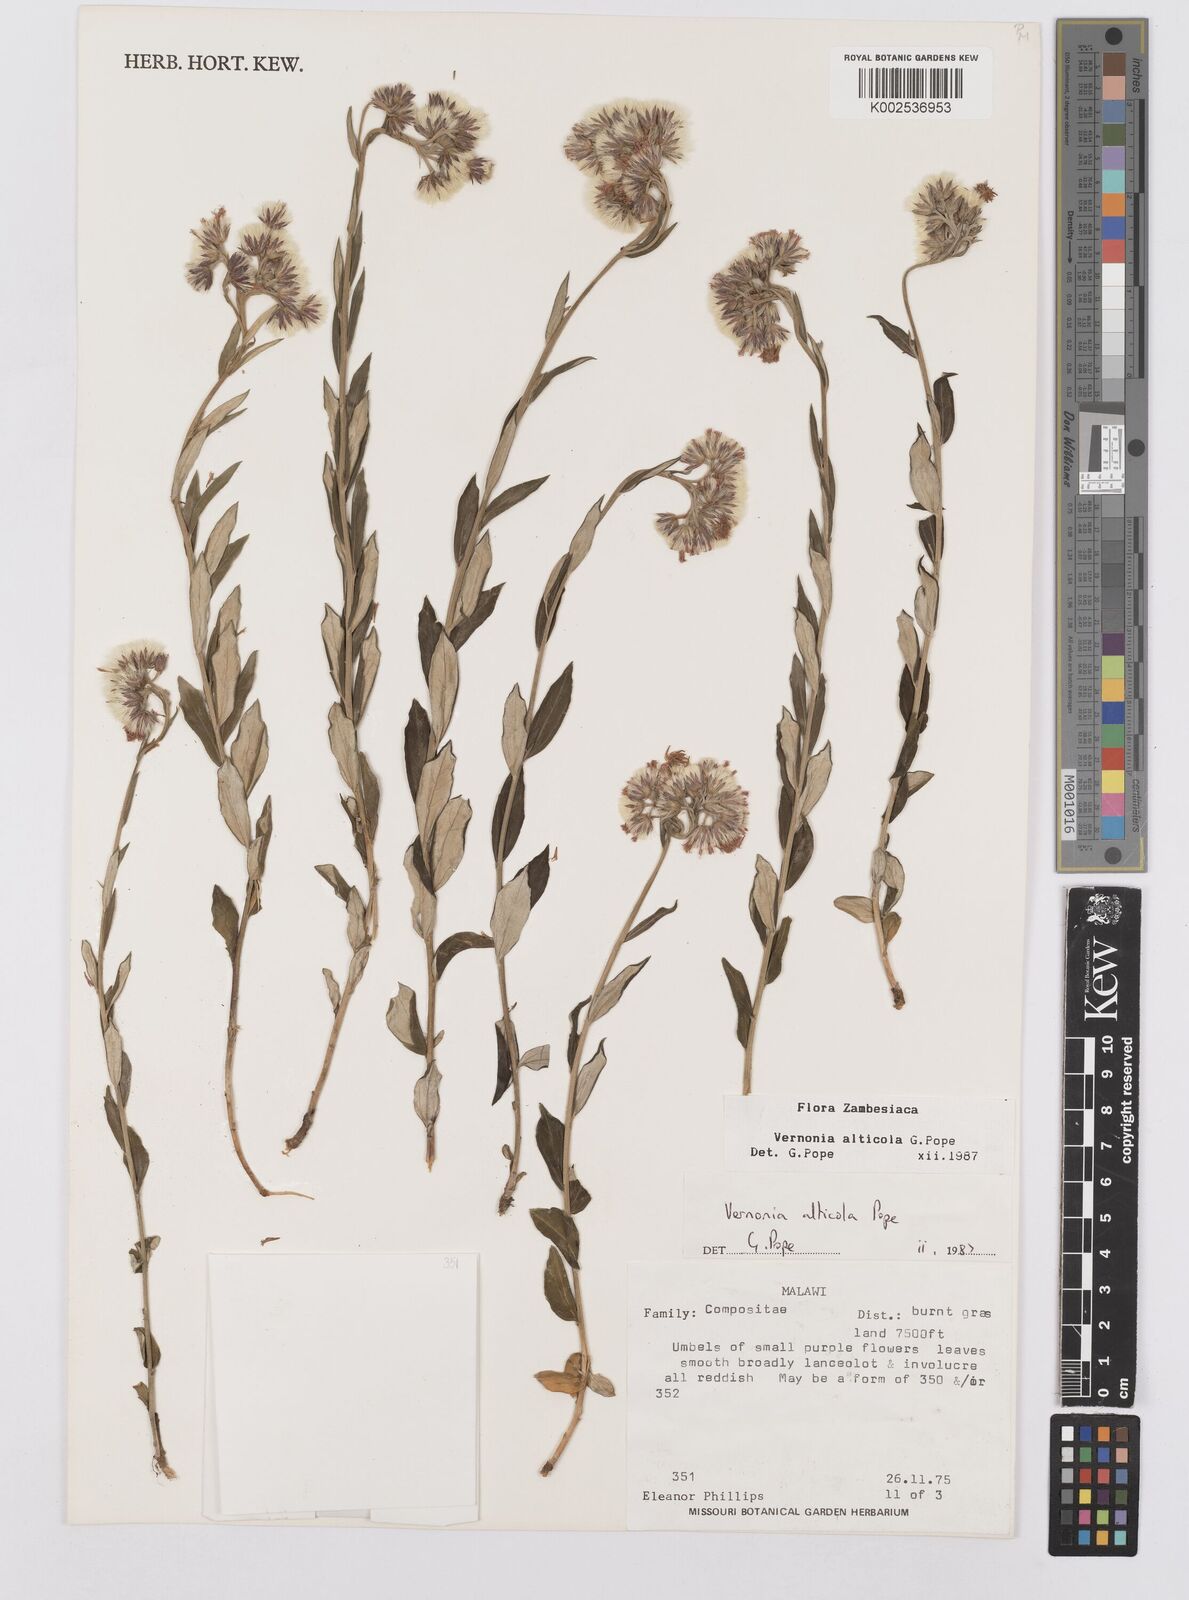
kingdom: Plantae
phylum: Tracheophyta
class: Magnoliopsida
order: Asterales
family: Asteraceae
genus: Vernonia
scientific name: Vernonia alticola
